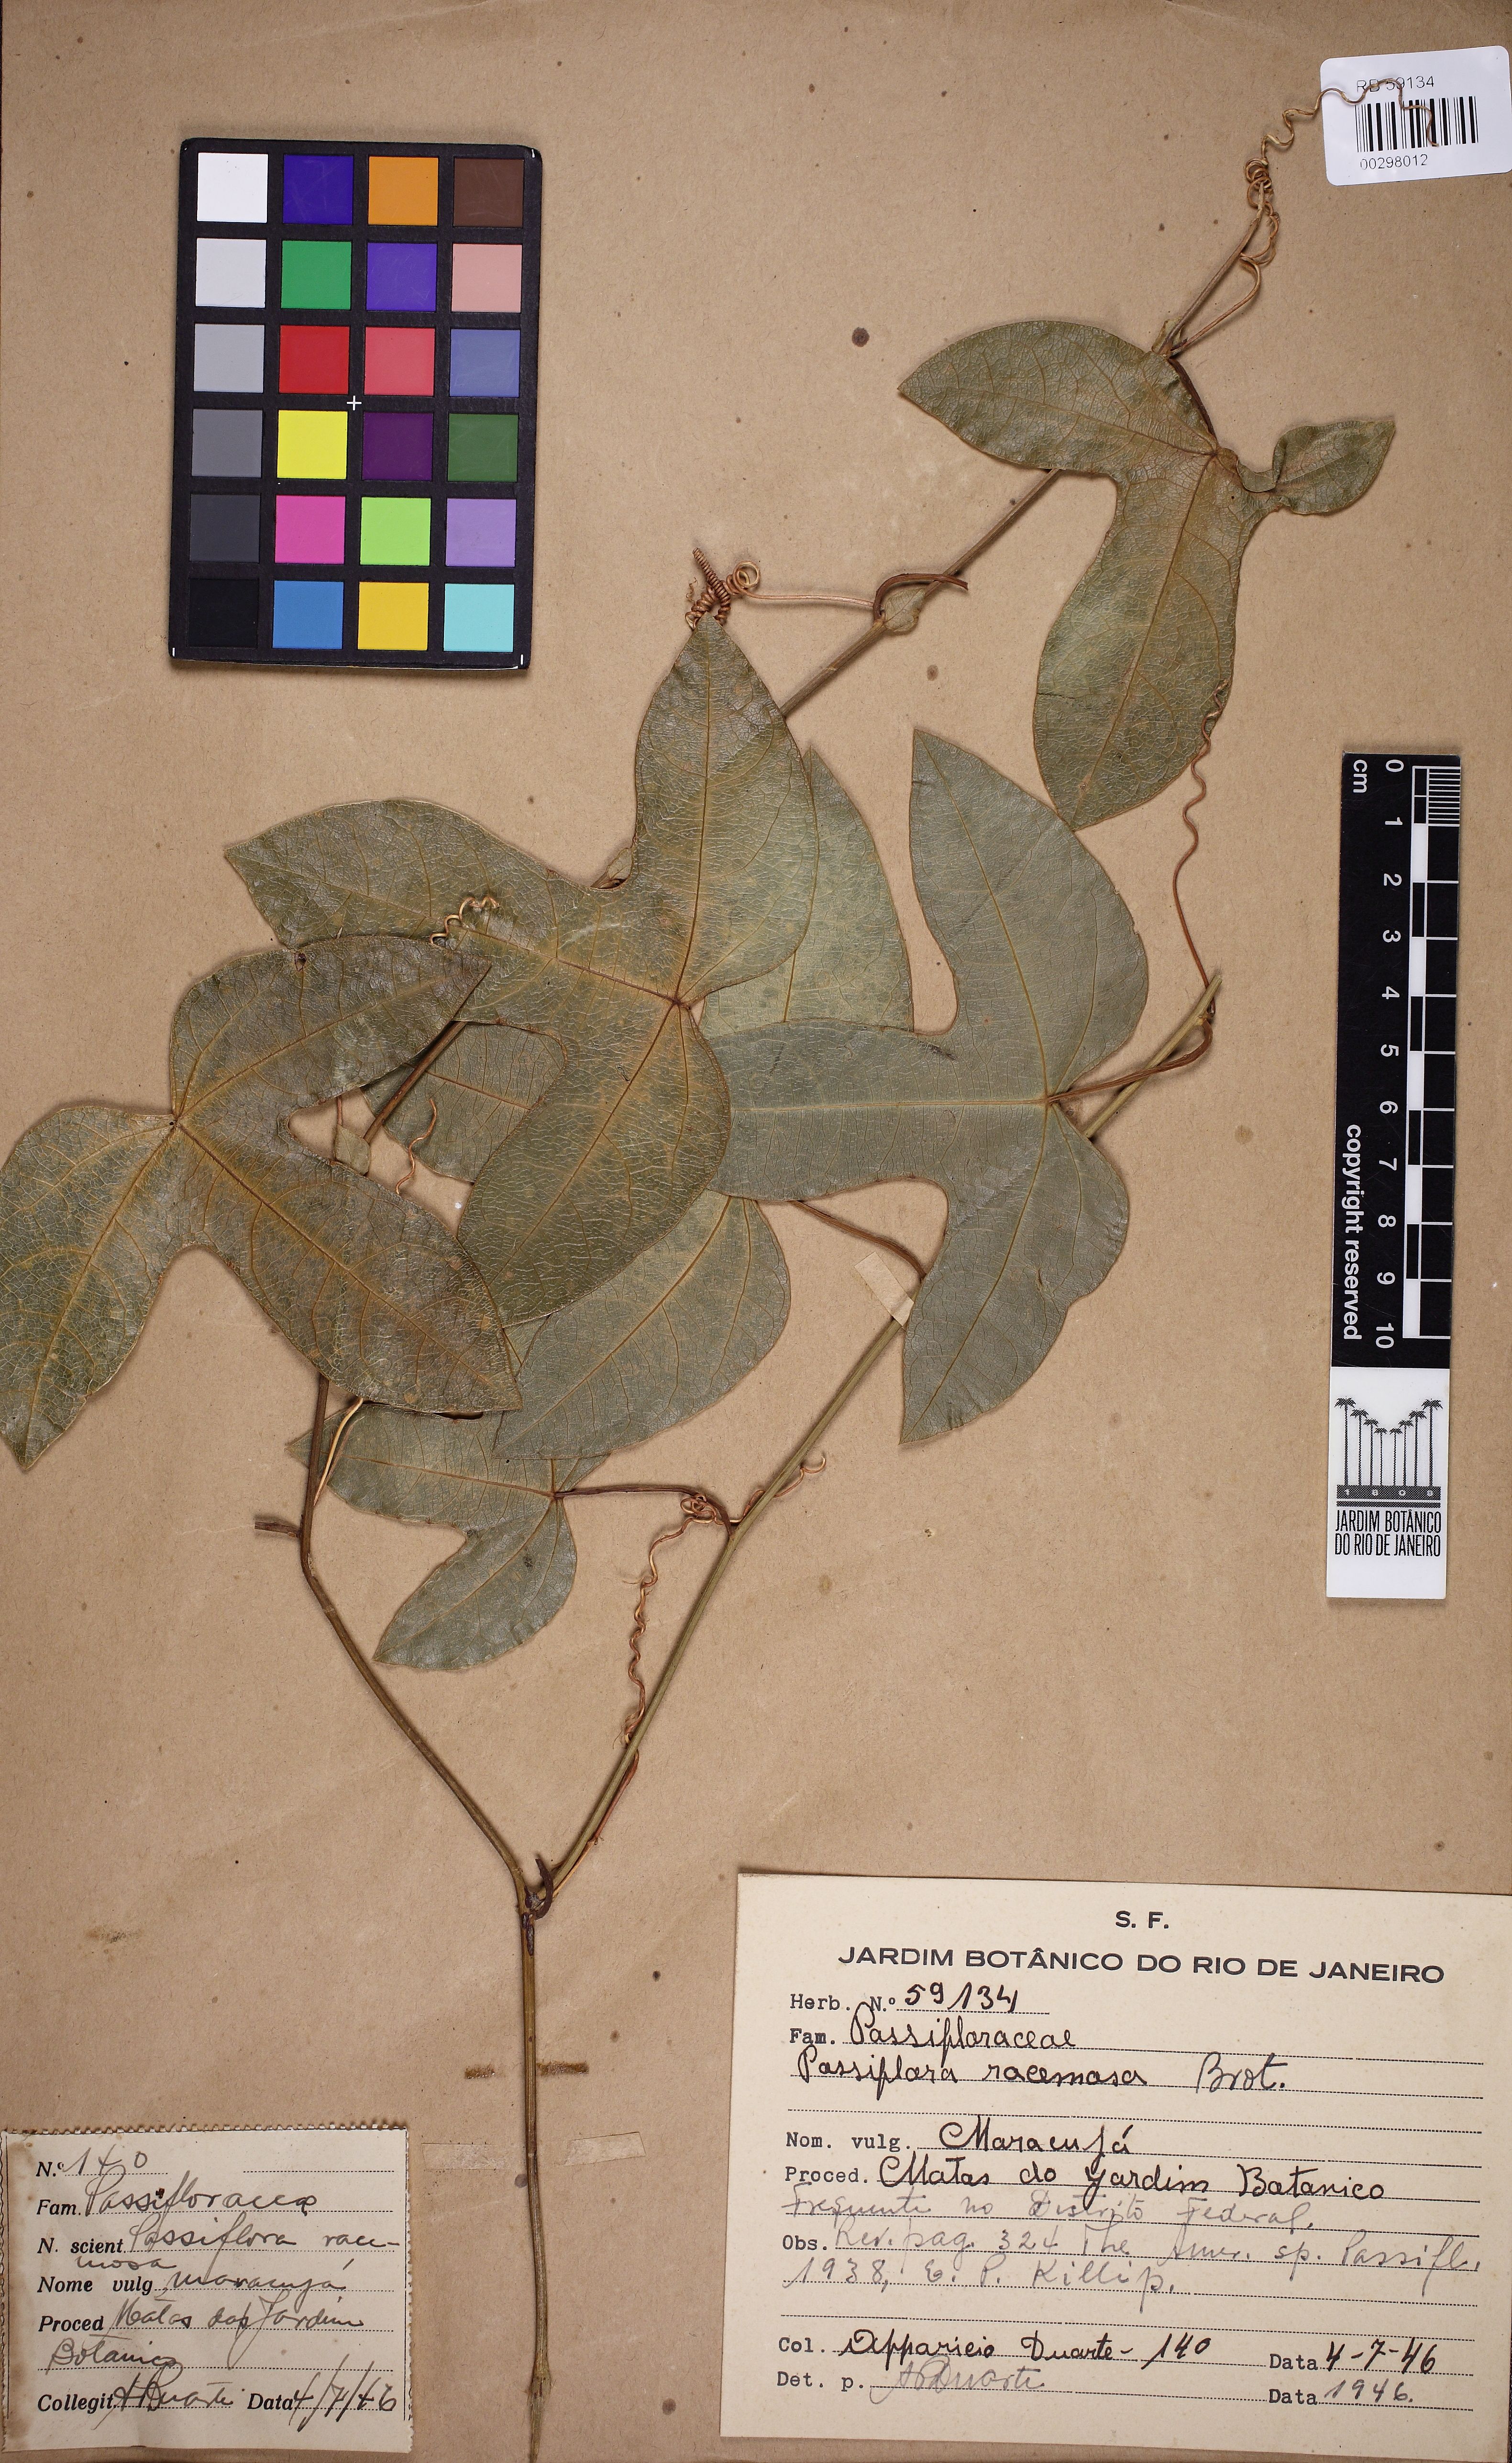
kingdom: Plantae
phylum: Tracheophyta
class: Magnoliopsida
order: Malpighiales
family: Passifloraceae
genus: Passiflora
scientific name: Passiflora racemosa
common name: Red passionflower
